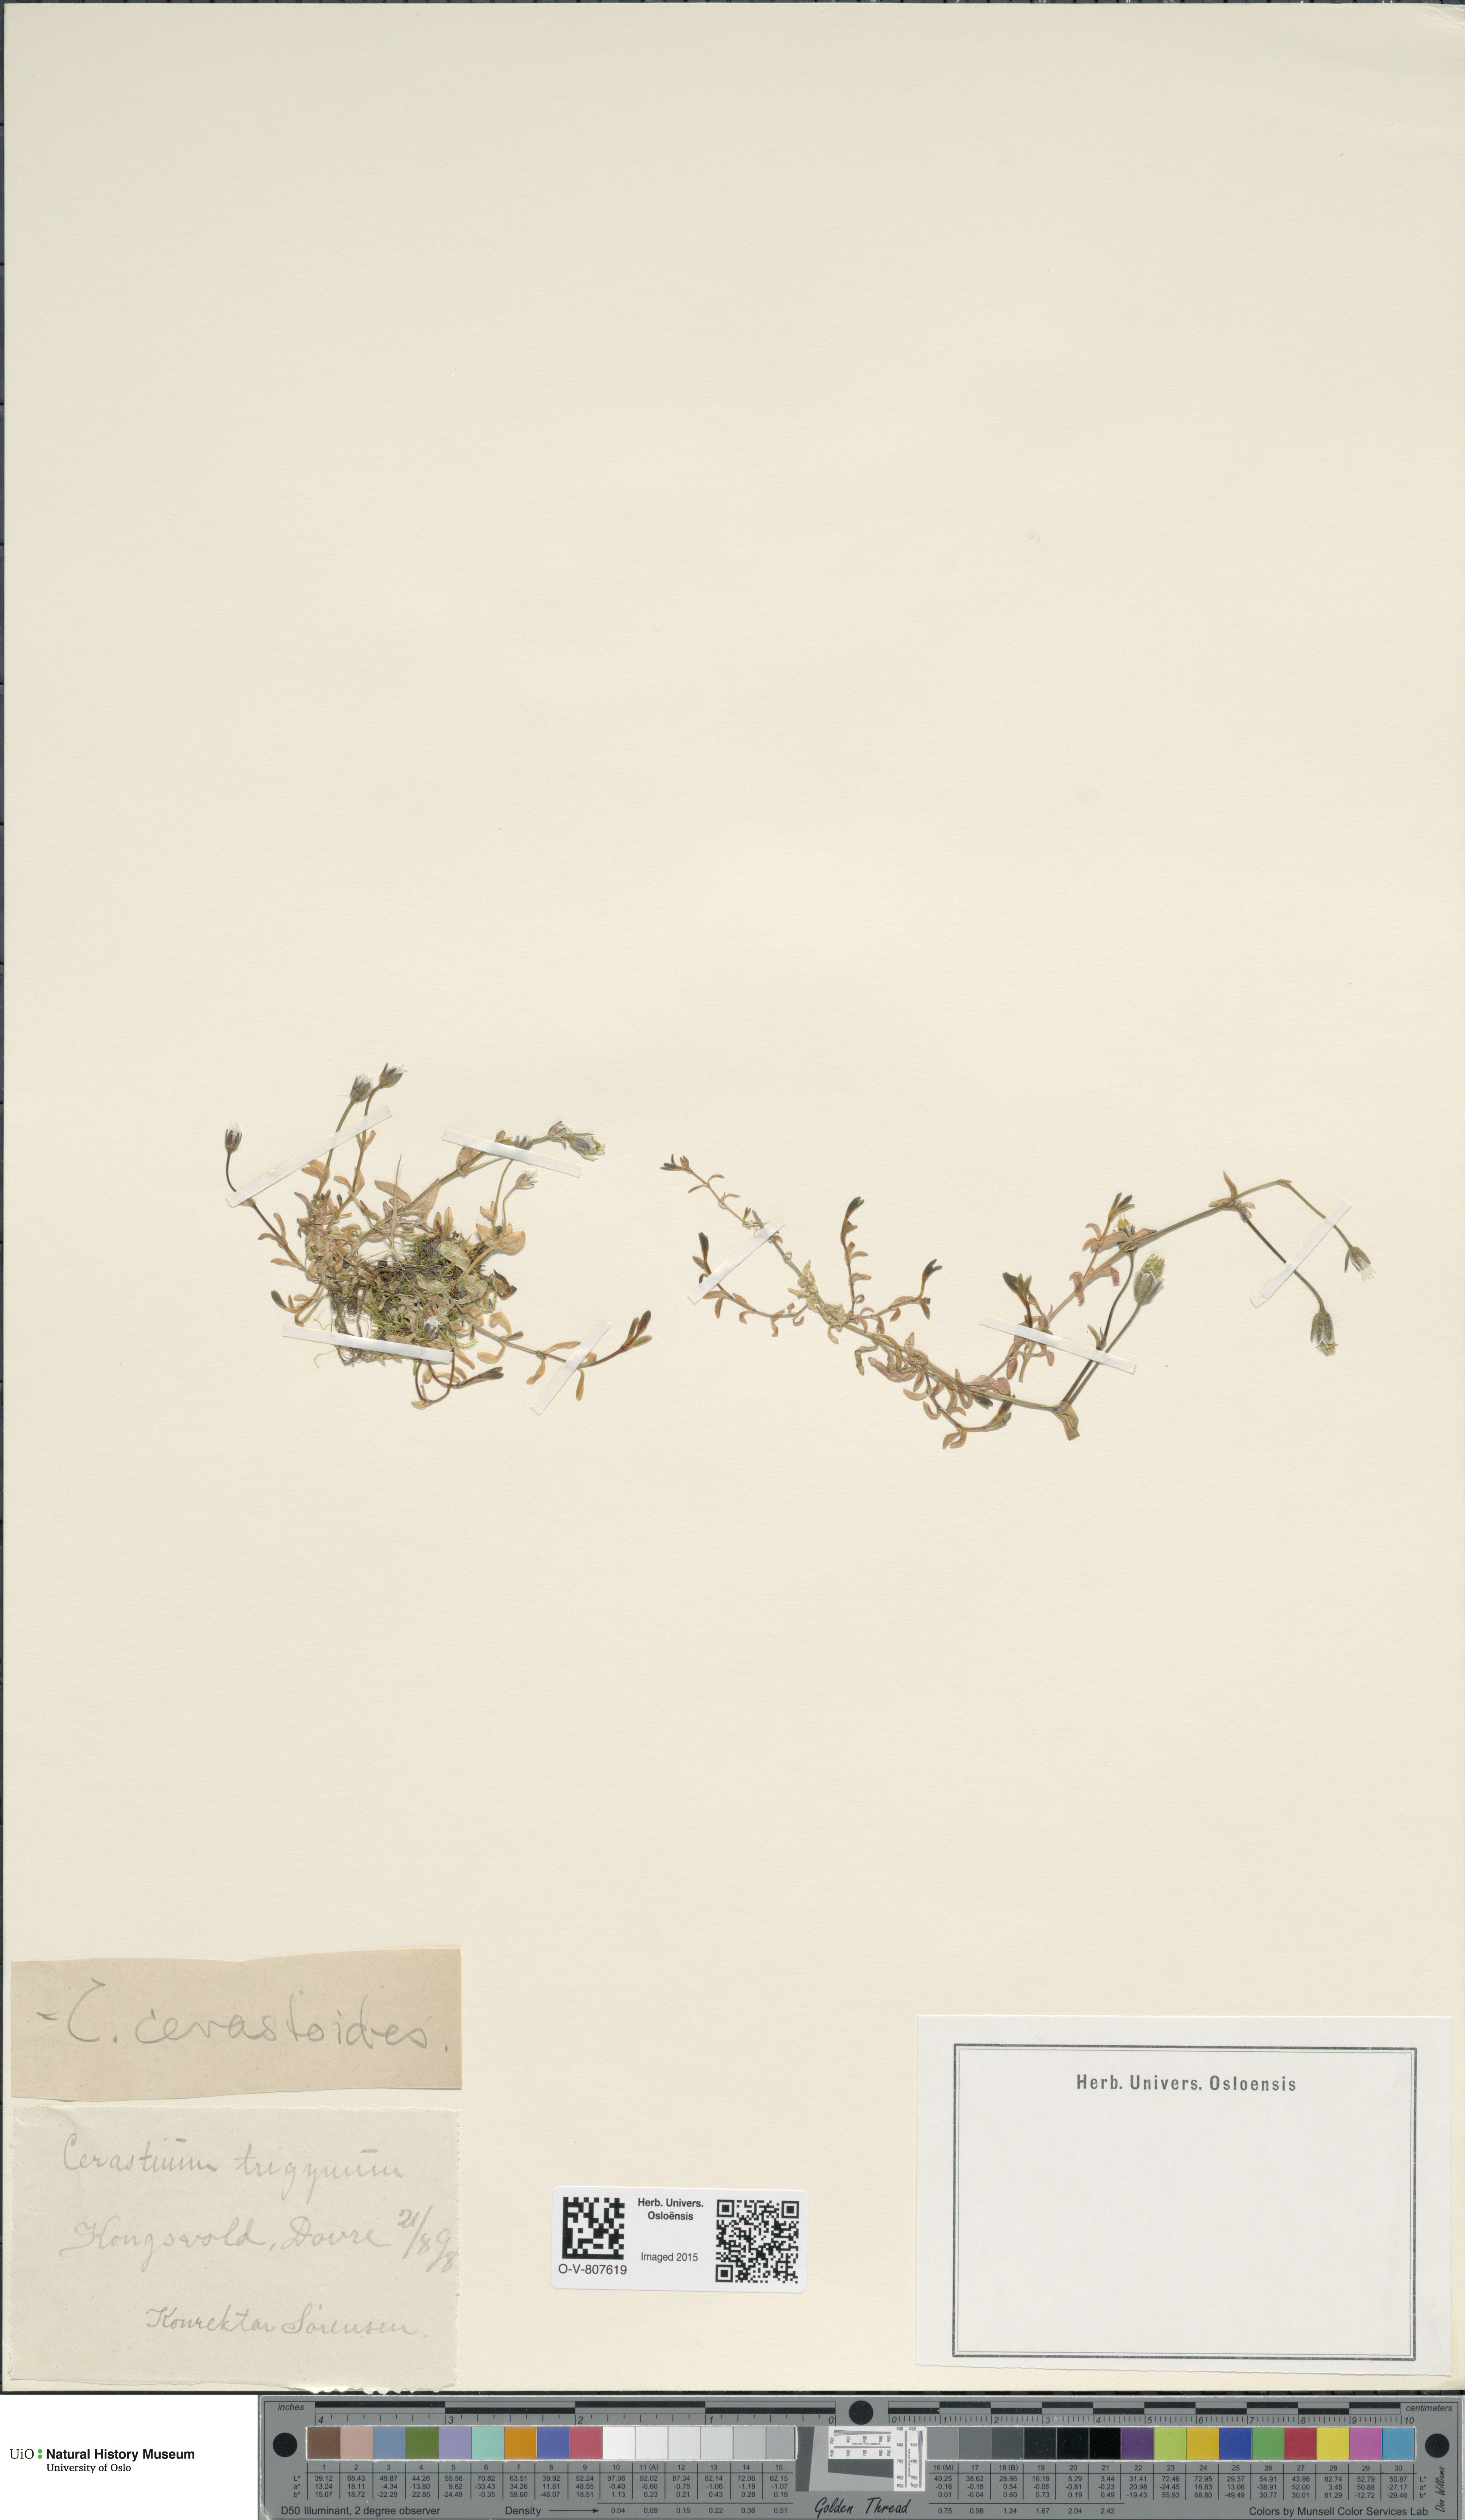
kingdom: Plantae
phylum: Tracheophyta
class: Magnoliopsida
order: Caryophyllales
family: Caryophyllaceae
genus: Dichodon
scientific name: Dichodon cerastoides
